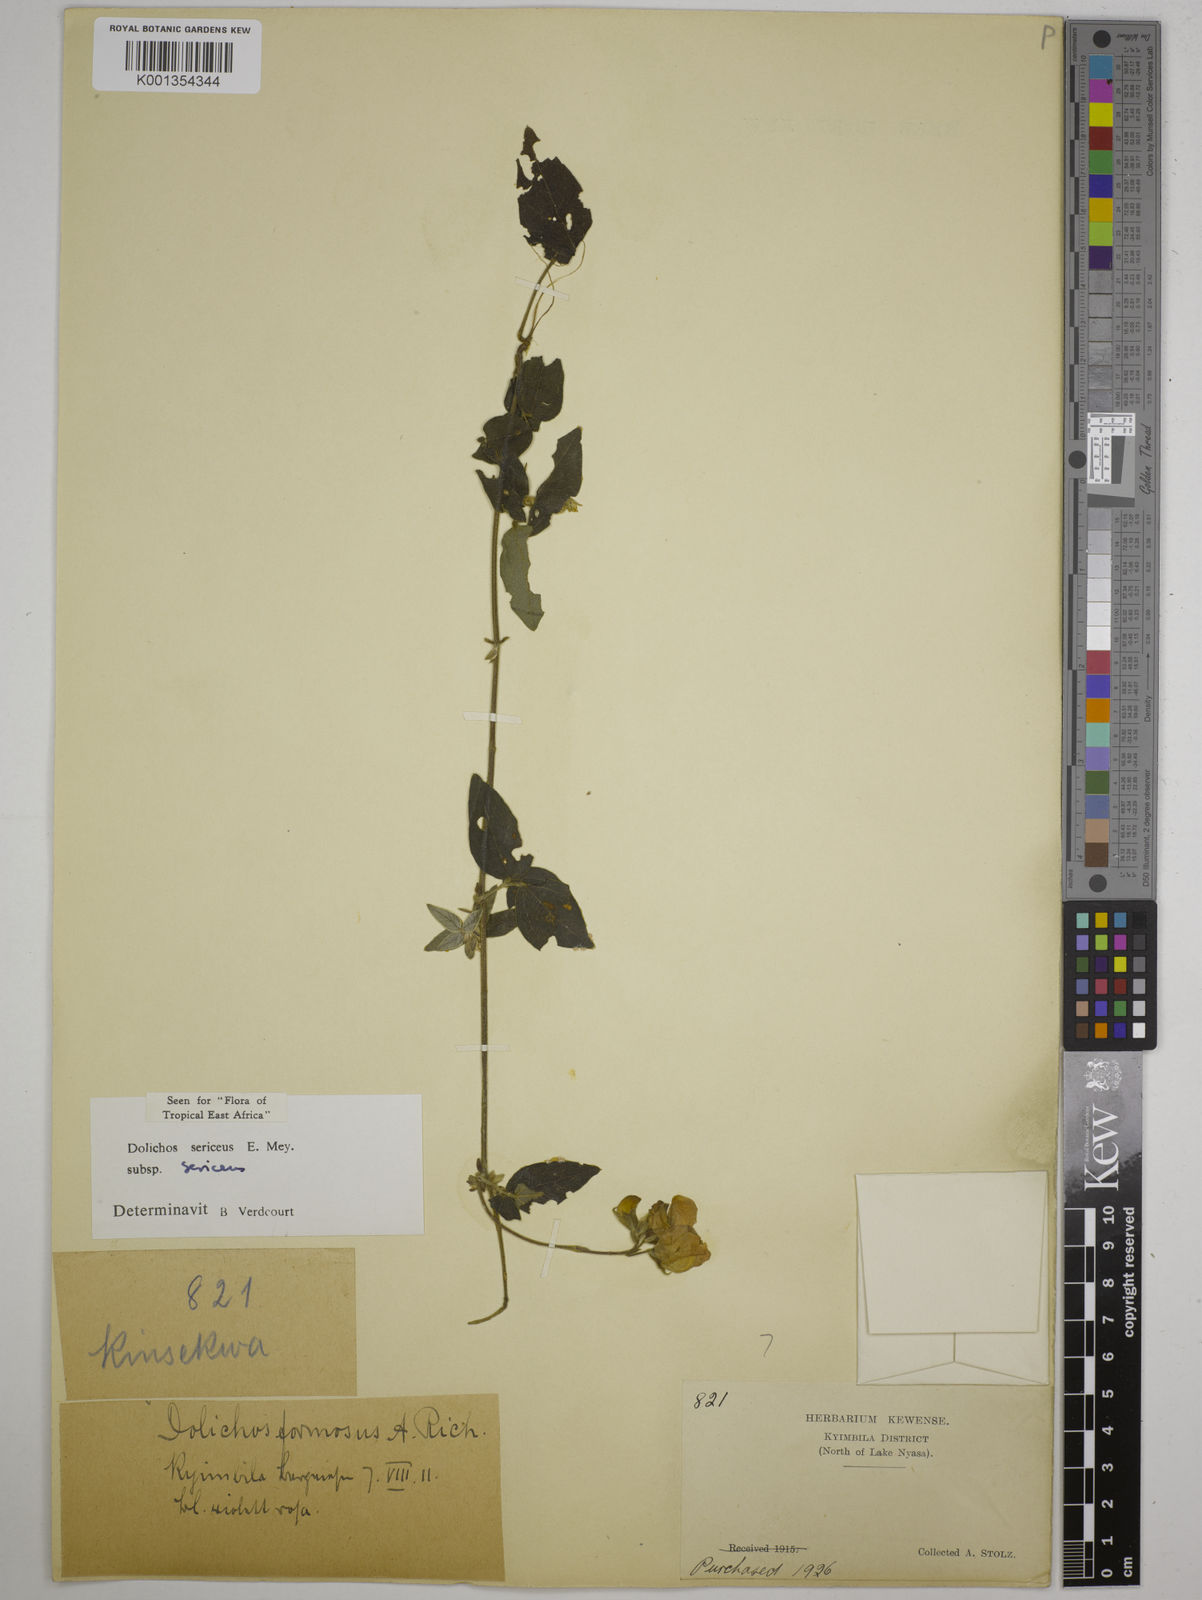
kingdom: Plantae
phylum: Tracheophyta
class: Magnoliopsida
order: Fabales
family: Fabaceae
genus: Dolichos
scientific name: Dolichos sericeus
